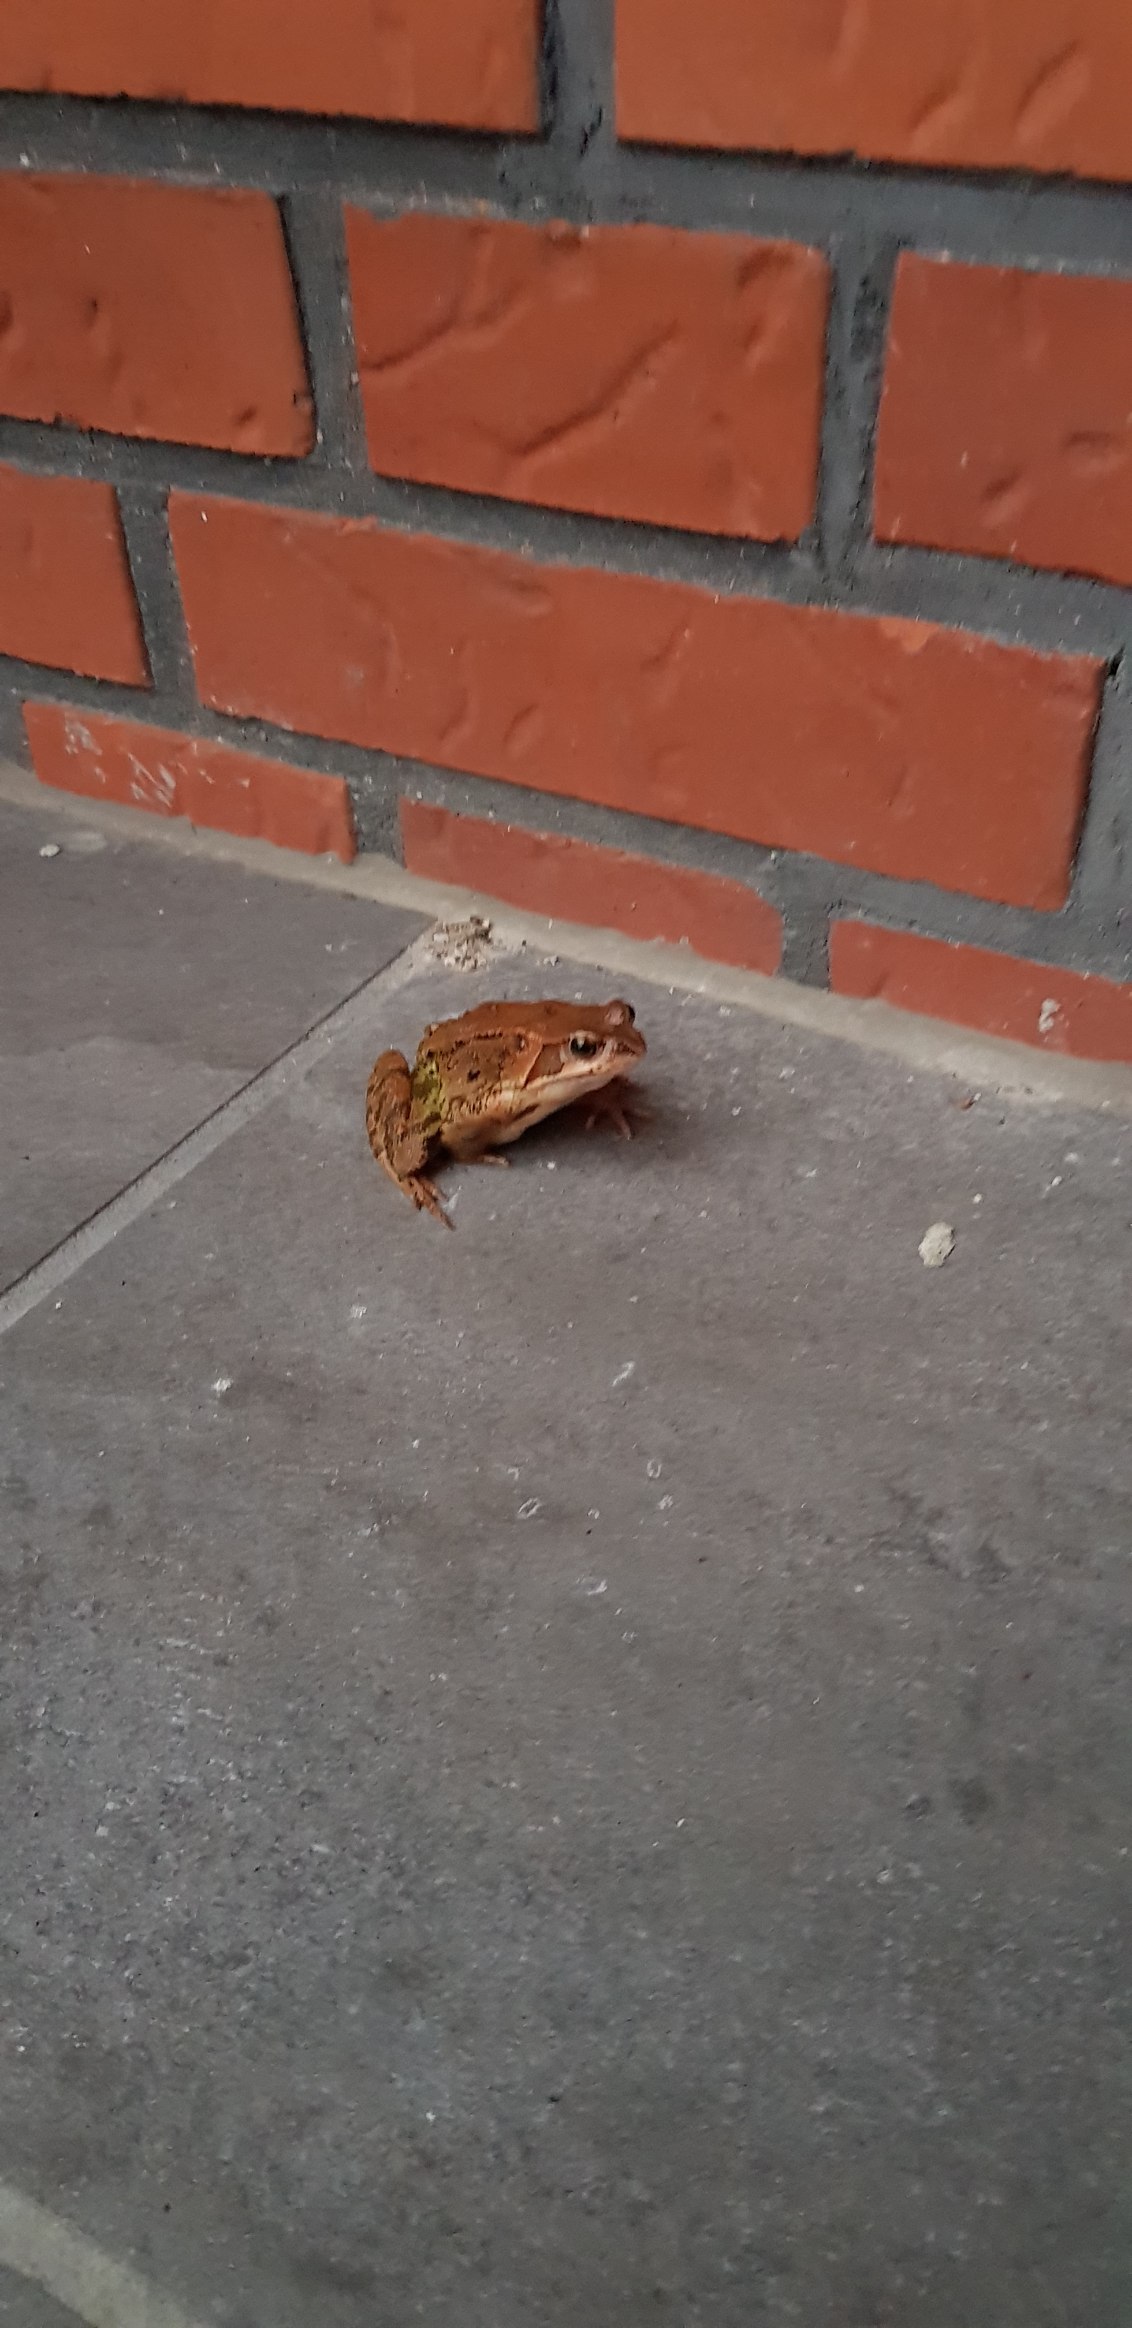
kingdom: Animalia
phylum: Chordata
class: Amphibia
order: Anura
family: Ranidae
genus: Rana
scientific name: Rana temporaria
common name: Butsnudet frø
